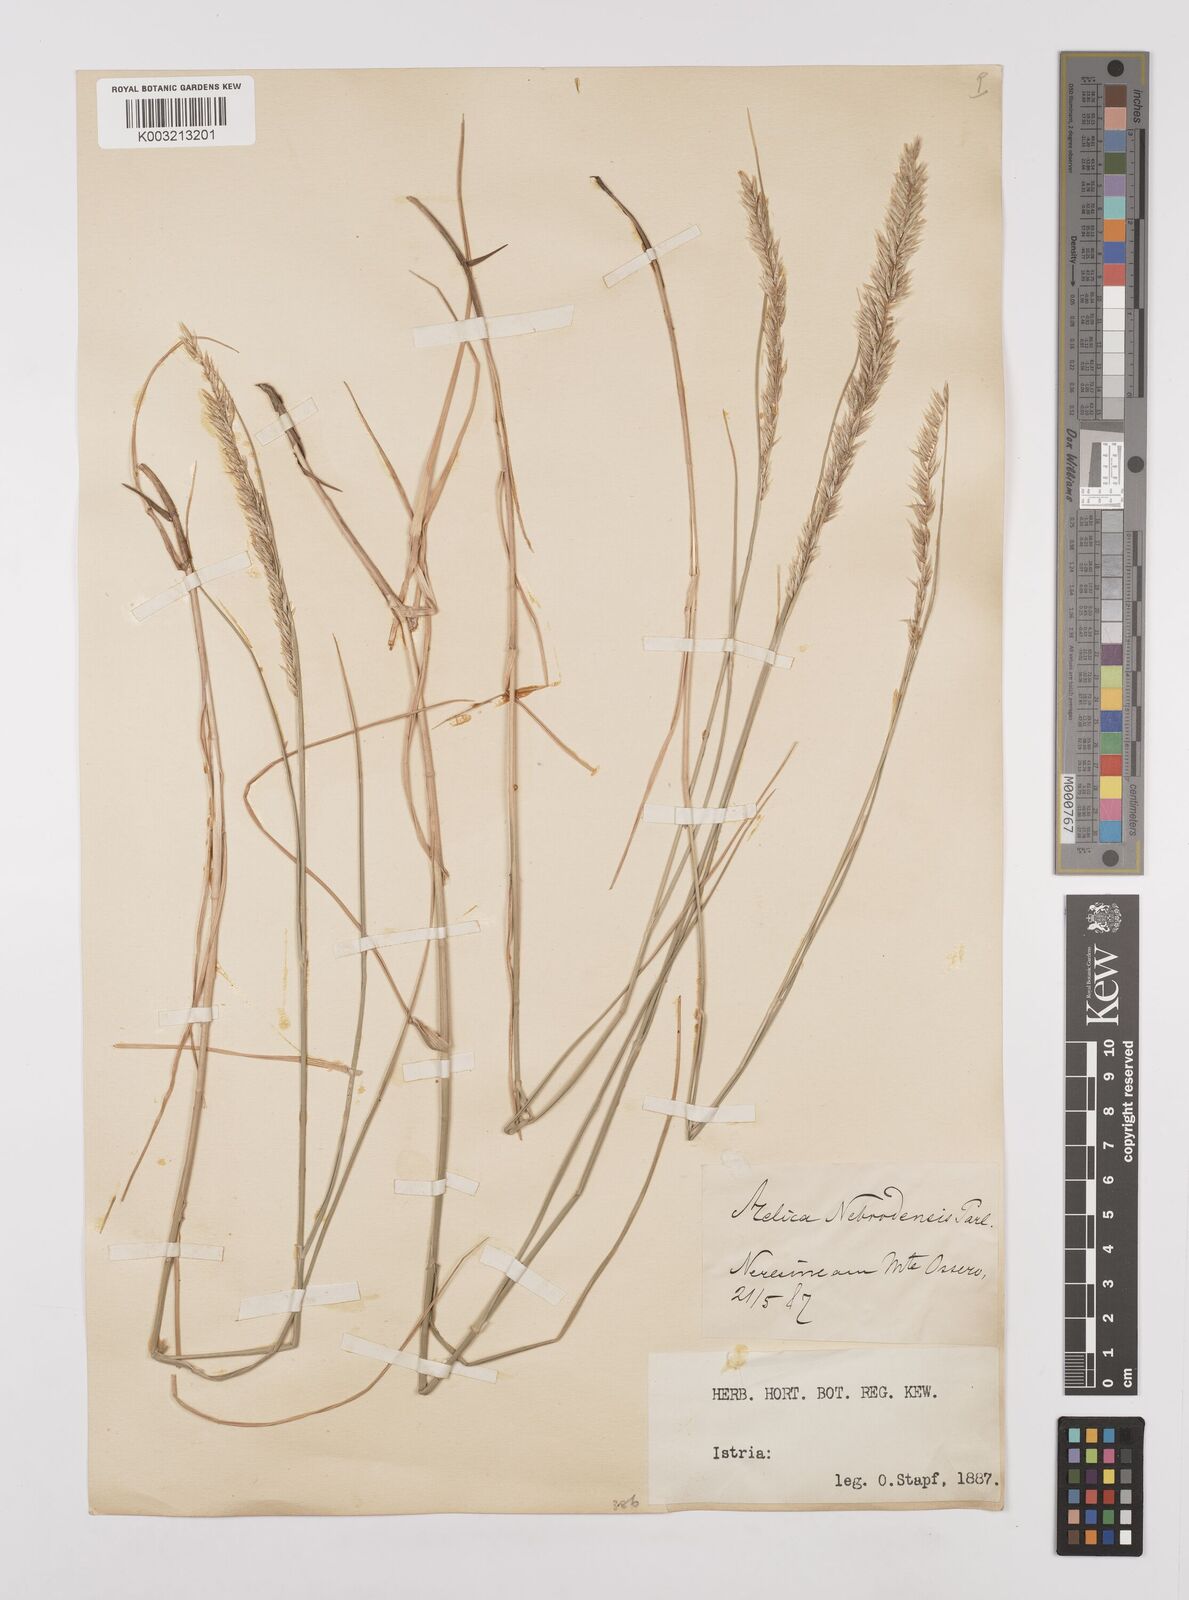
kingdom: Plantae
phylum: Tracheophyta
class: Liliopsida
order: Poales
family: Poaceae
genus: Melica
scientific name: Melica ciliata
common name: Hairy melicgrass
